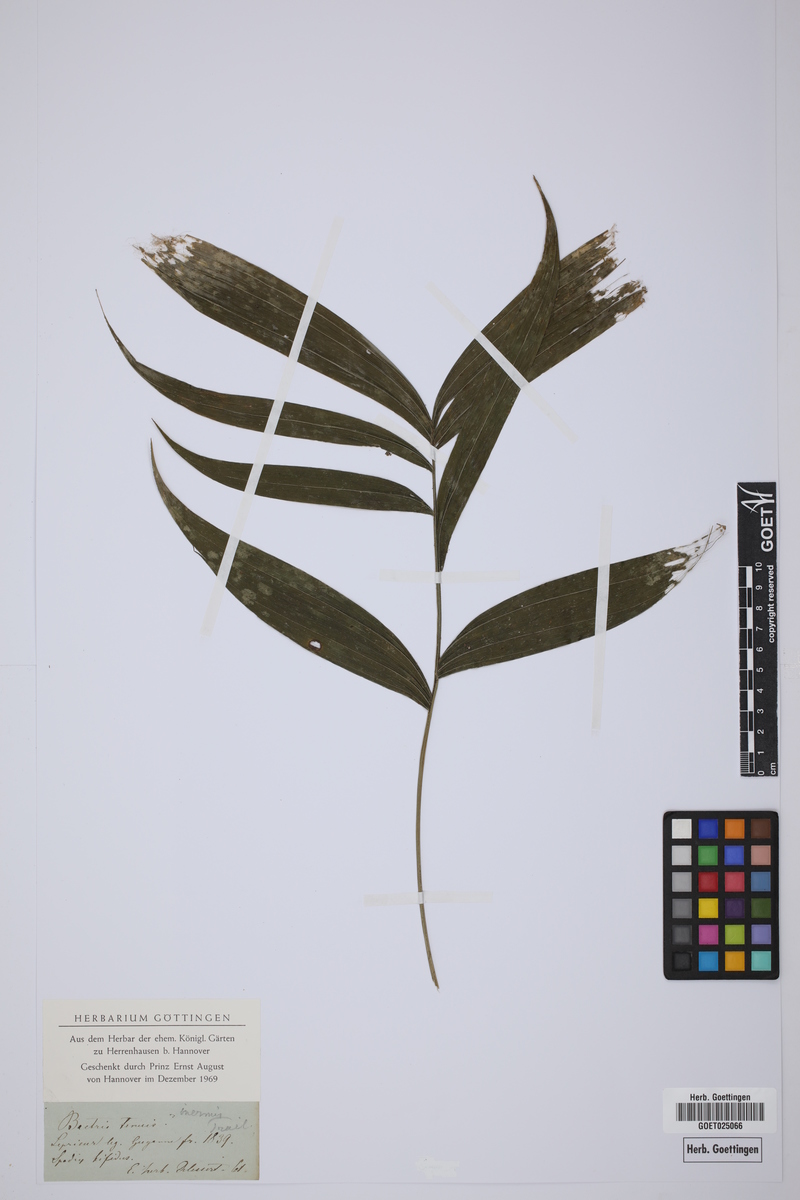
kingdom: Plantae
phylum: Tracheophyta
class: Liliopsida
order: Arecales
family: Arecaceae
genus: Bactris
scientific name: Bactris simplicifrons
